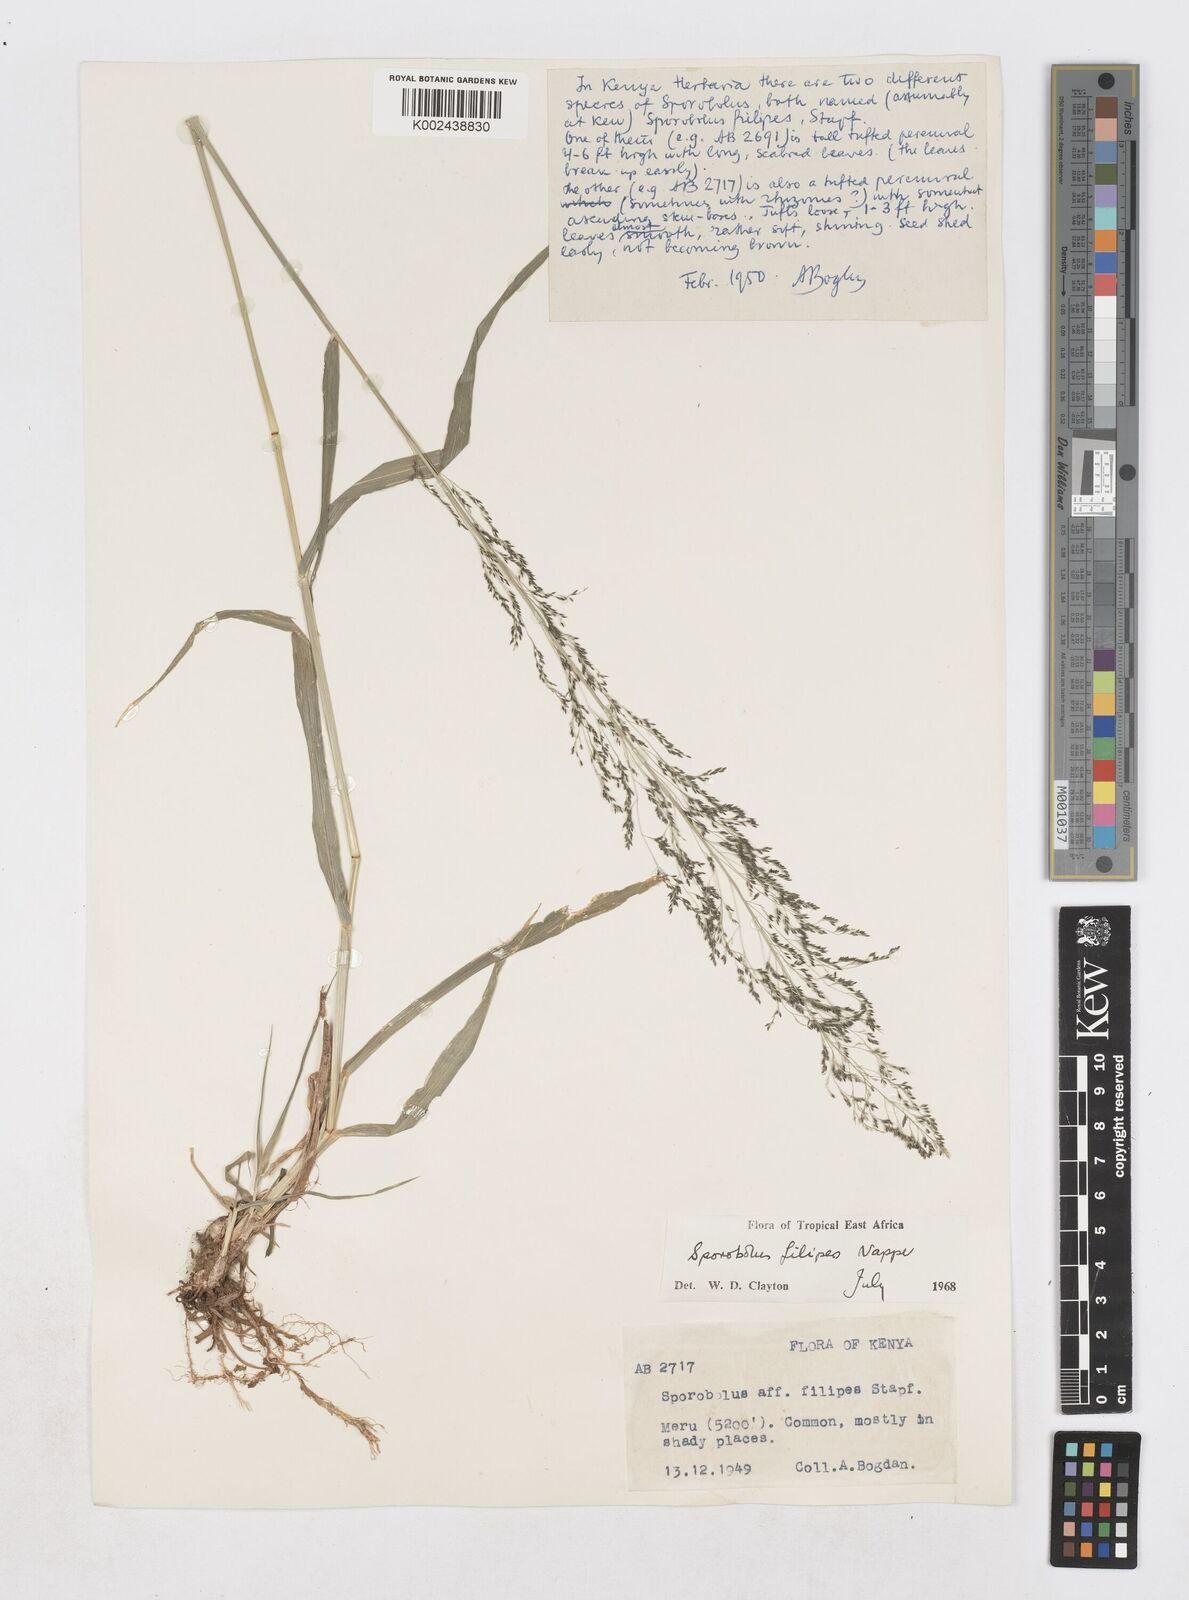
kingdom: Plantae
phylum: Tracheophyta
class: Liliopsida
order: Poales
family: Poaceae
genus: Sporobolus
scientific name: Sporobolus agrostoides
